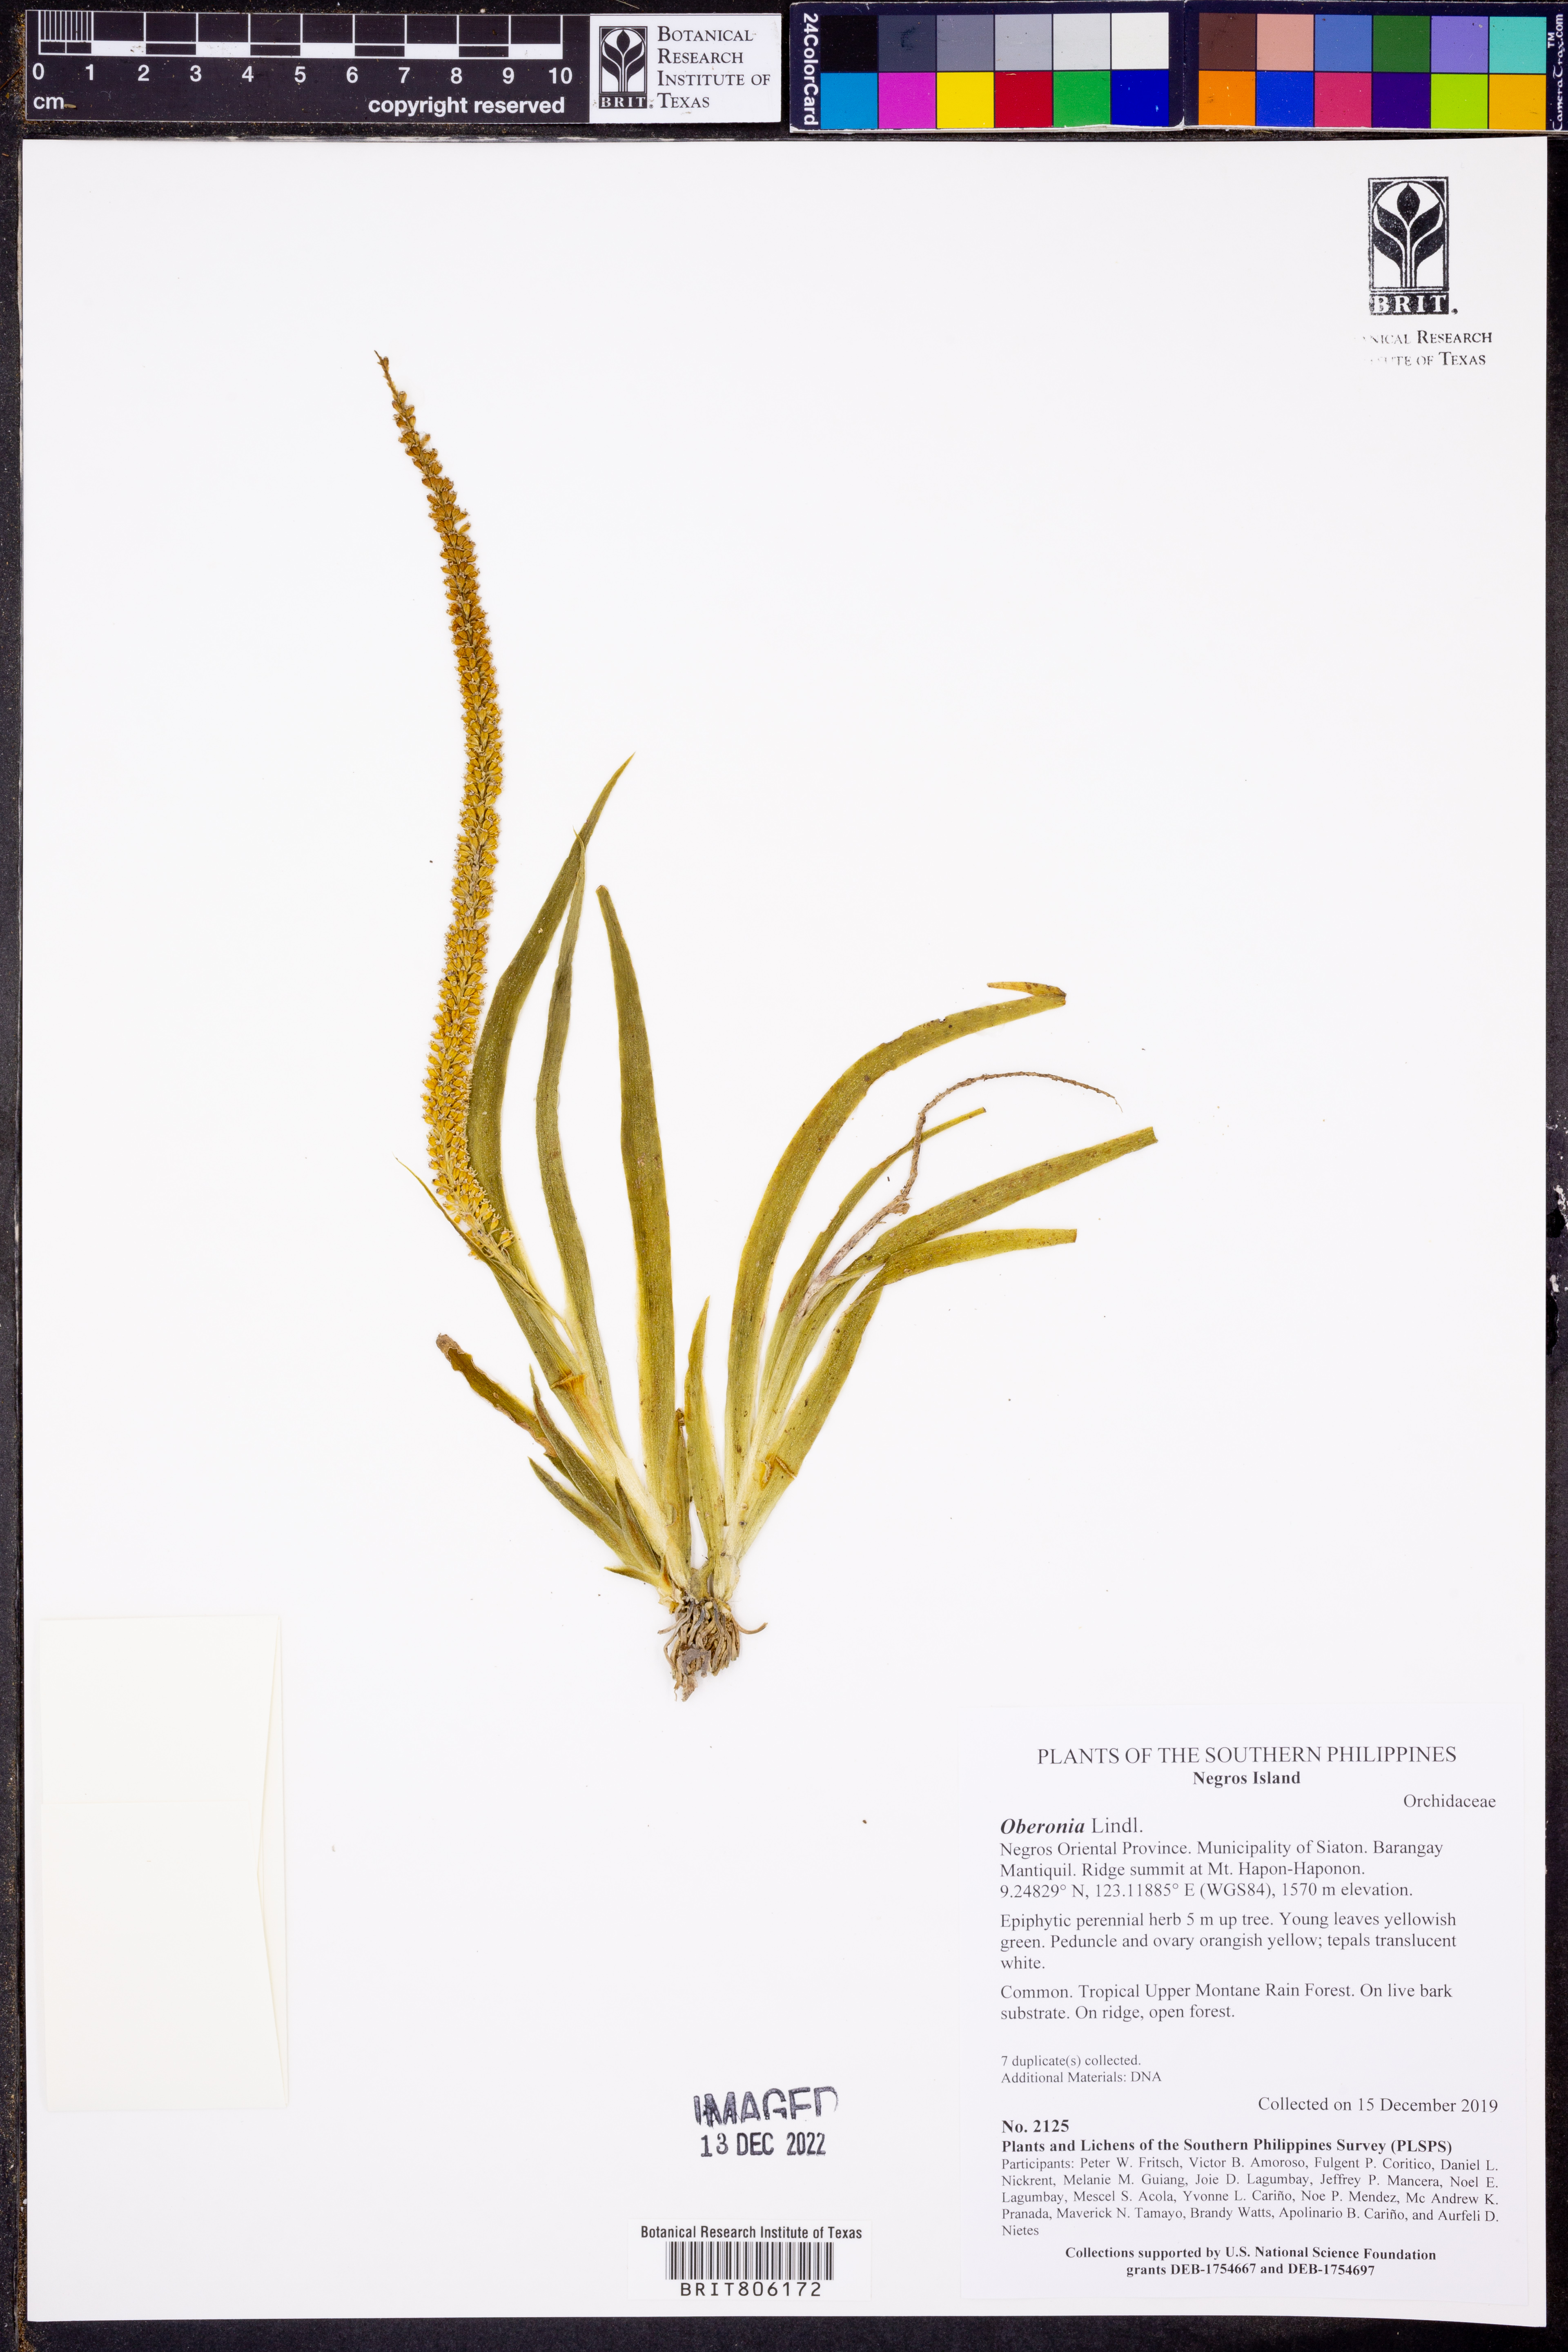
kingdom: Plantae
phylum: Tracheophyta
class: Liliopsida
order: Asparagales
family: Orchidaceae
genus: Oberonia
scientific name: Oberonia
